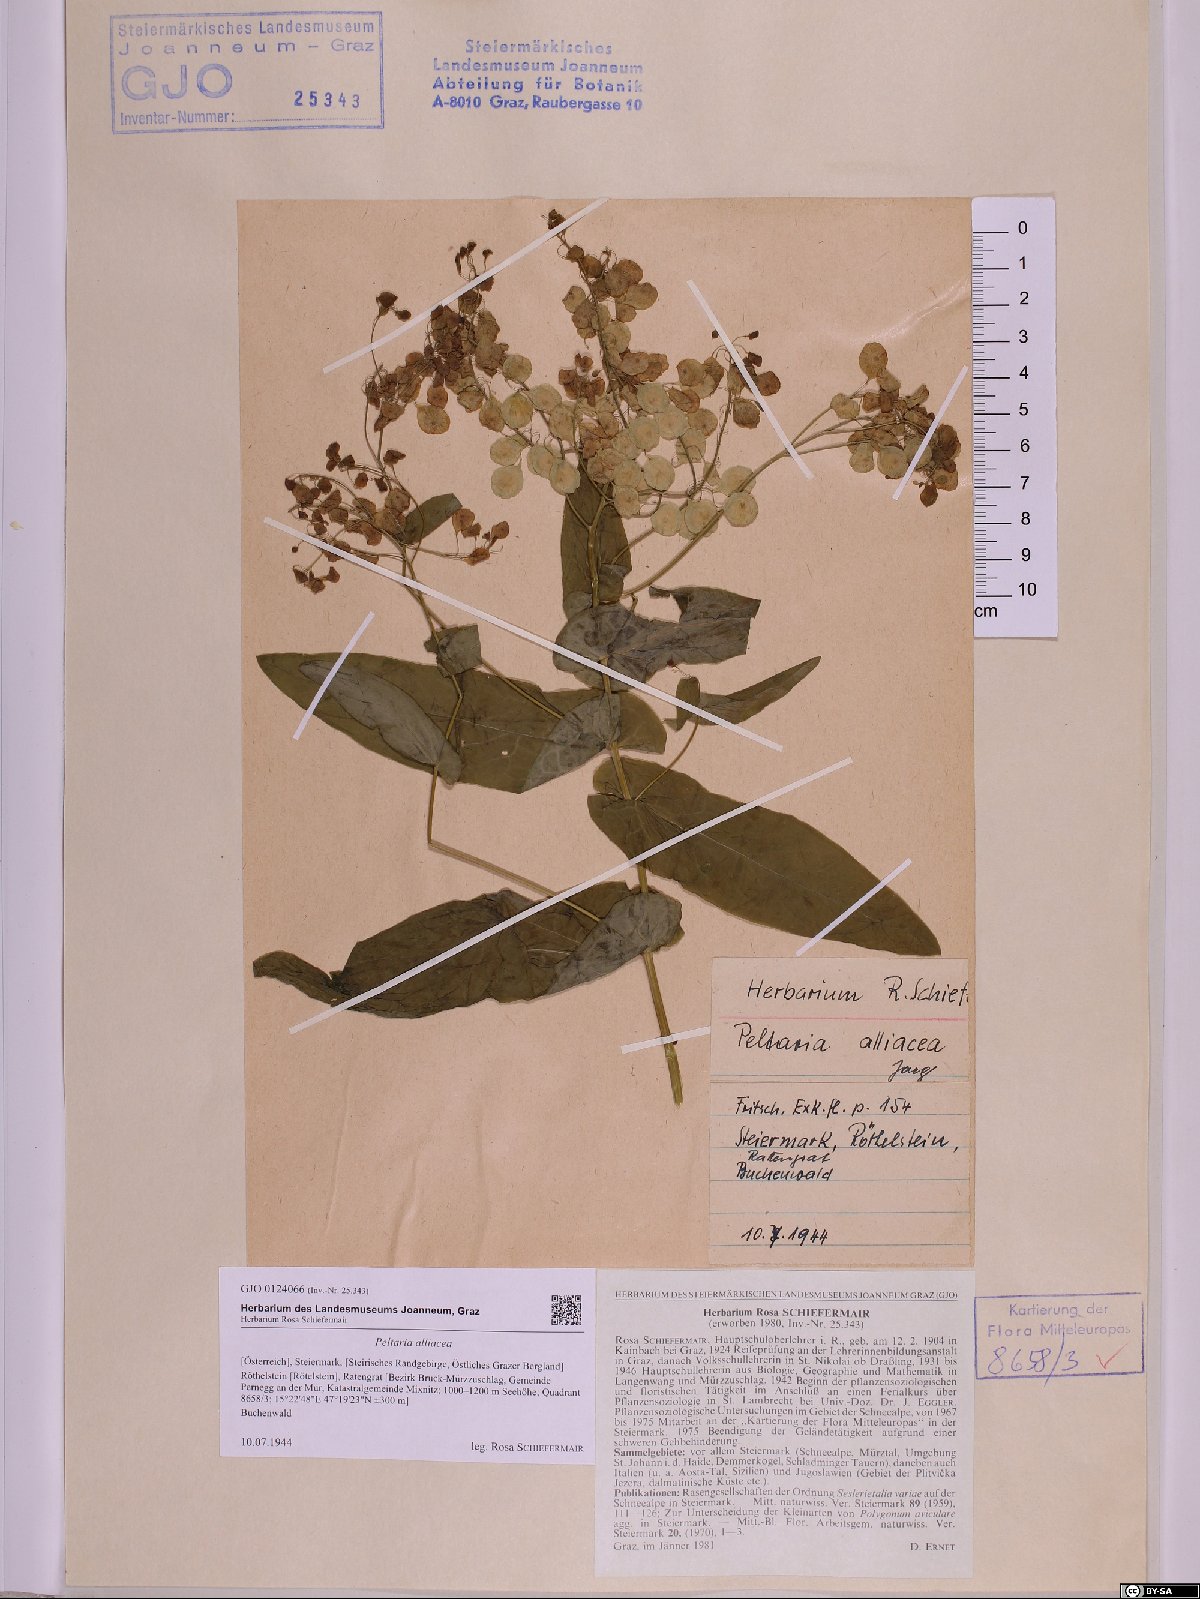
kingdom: Plantae
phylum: Tracheophyta
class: Magnoliopsida
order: Brassicales
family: Brassicaceae
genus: Peltaria
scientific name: Peltaria alliacea
